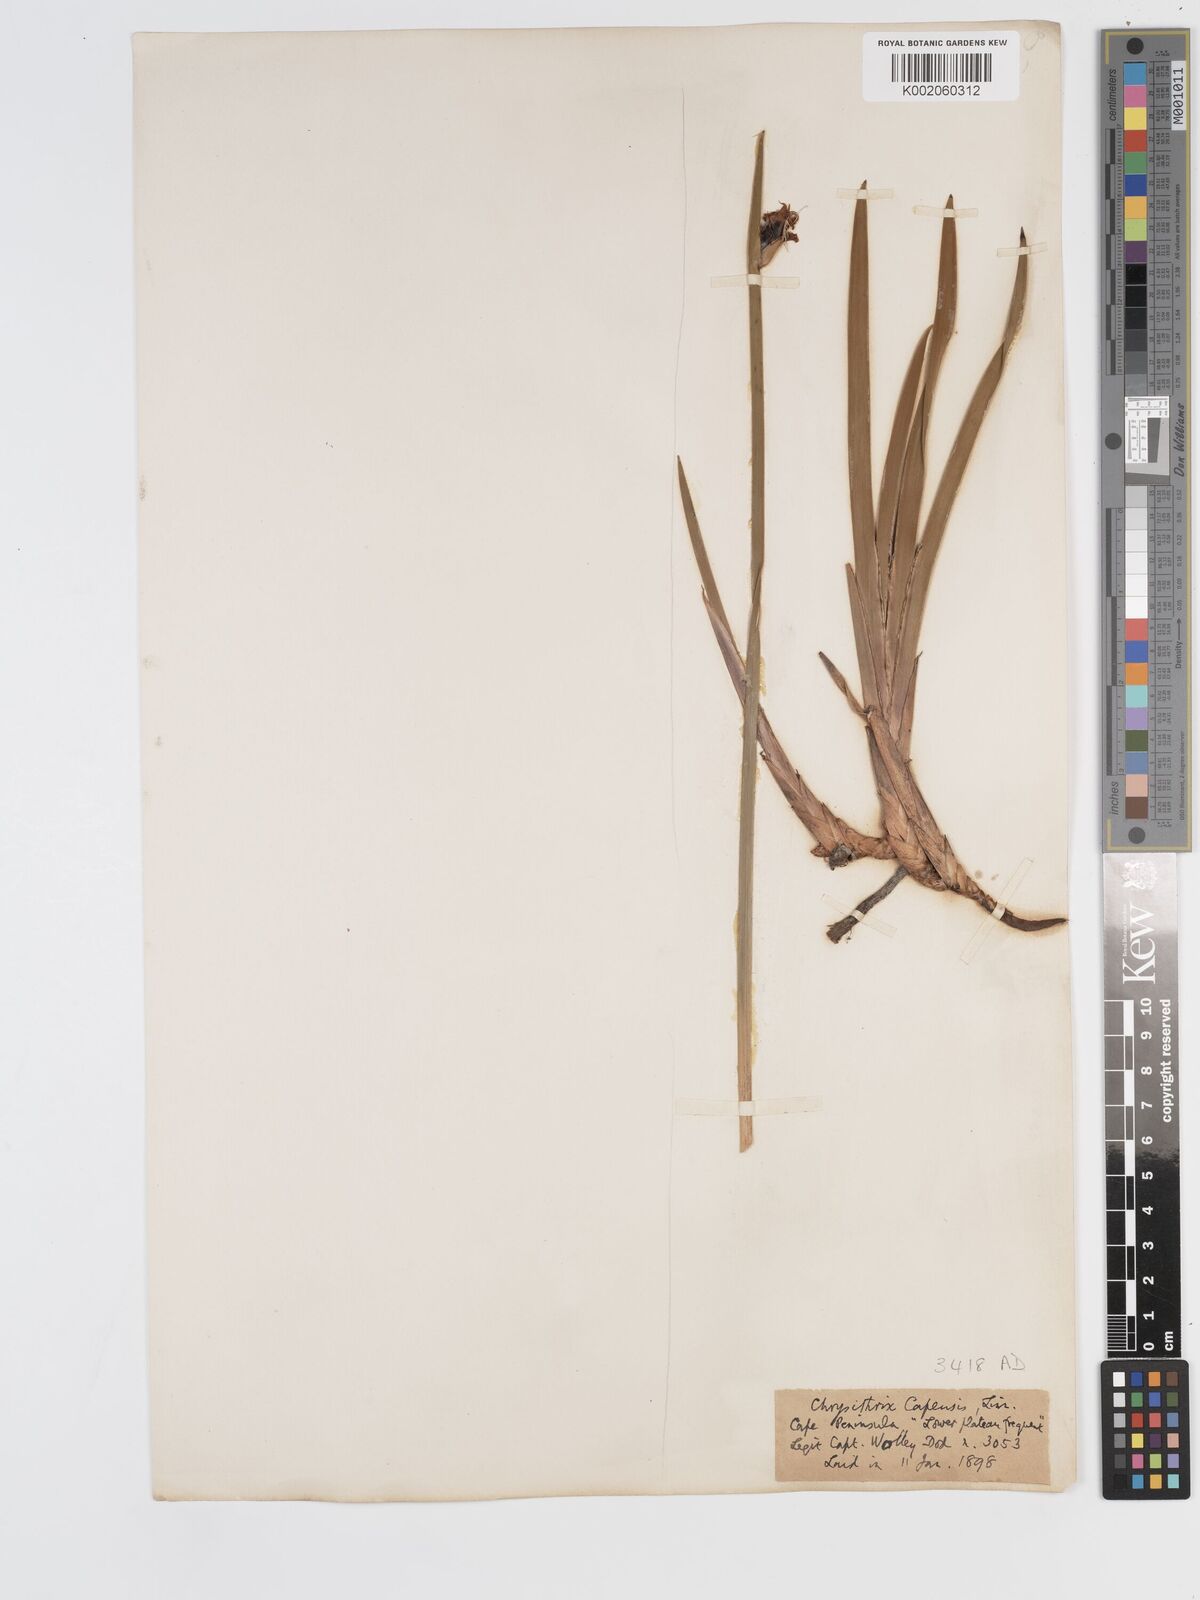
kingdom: Plantae
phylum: Tracheophyta
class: Liliopsida
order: Poales
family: Cyperaceae
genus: Chrysitrix
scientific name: Chrysitrix capensis
